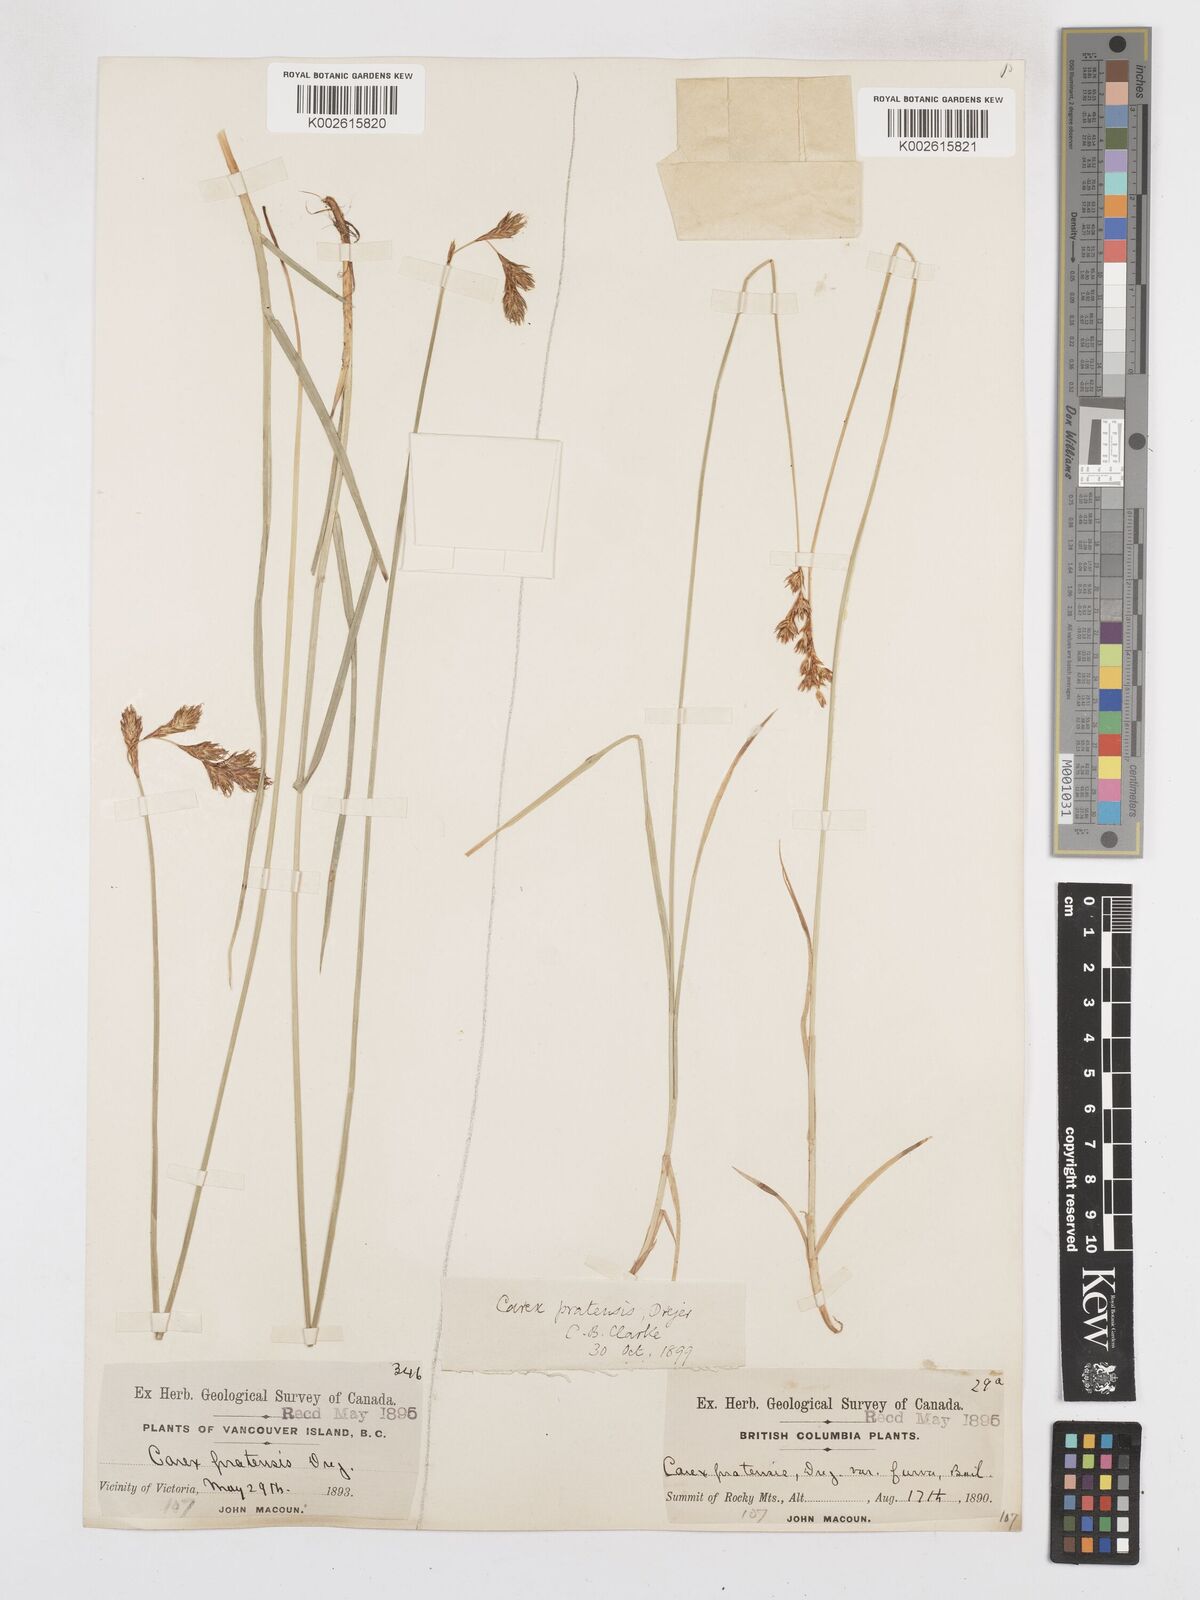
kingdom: Plantae
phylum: Tracheophyta
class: Liliopsida
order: Poales
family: Cyperaceae
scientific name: Cyperaceae
